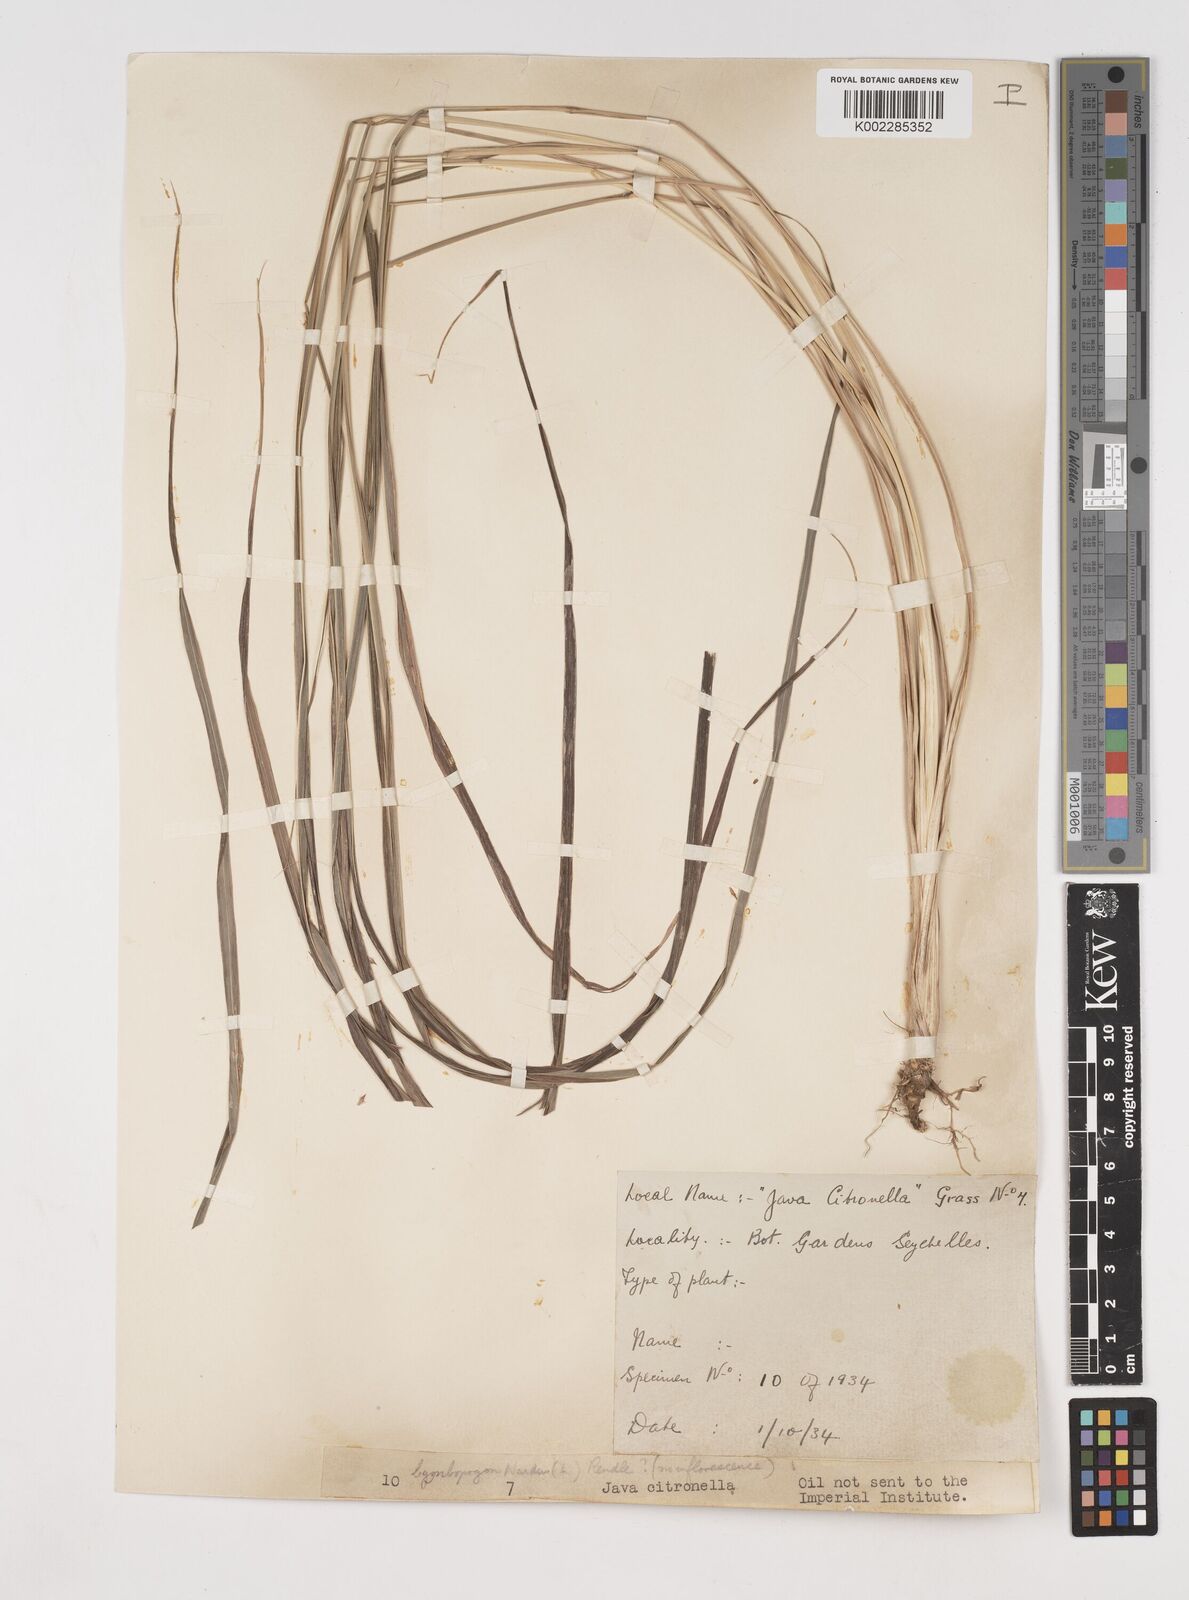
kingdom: Plantae
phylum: Tracheophyta
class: Liliopsida
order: Poales
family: Poaceae
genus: Cymbopogon
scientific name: Cymbopogon nardus
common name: Giant turpentine grass
